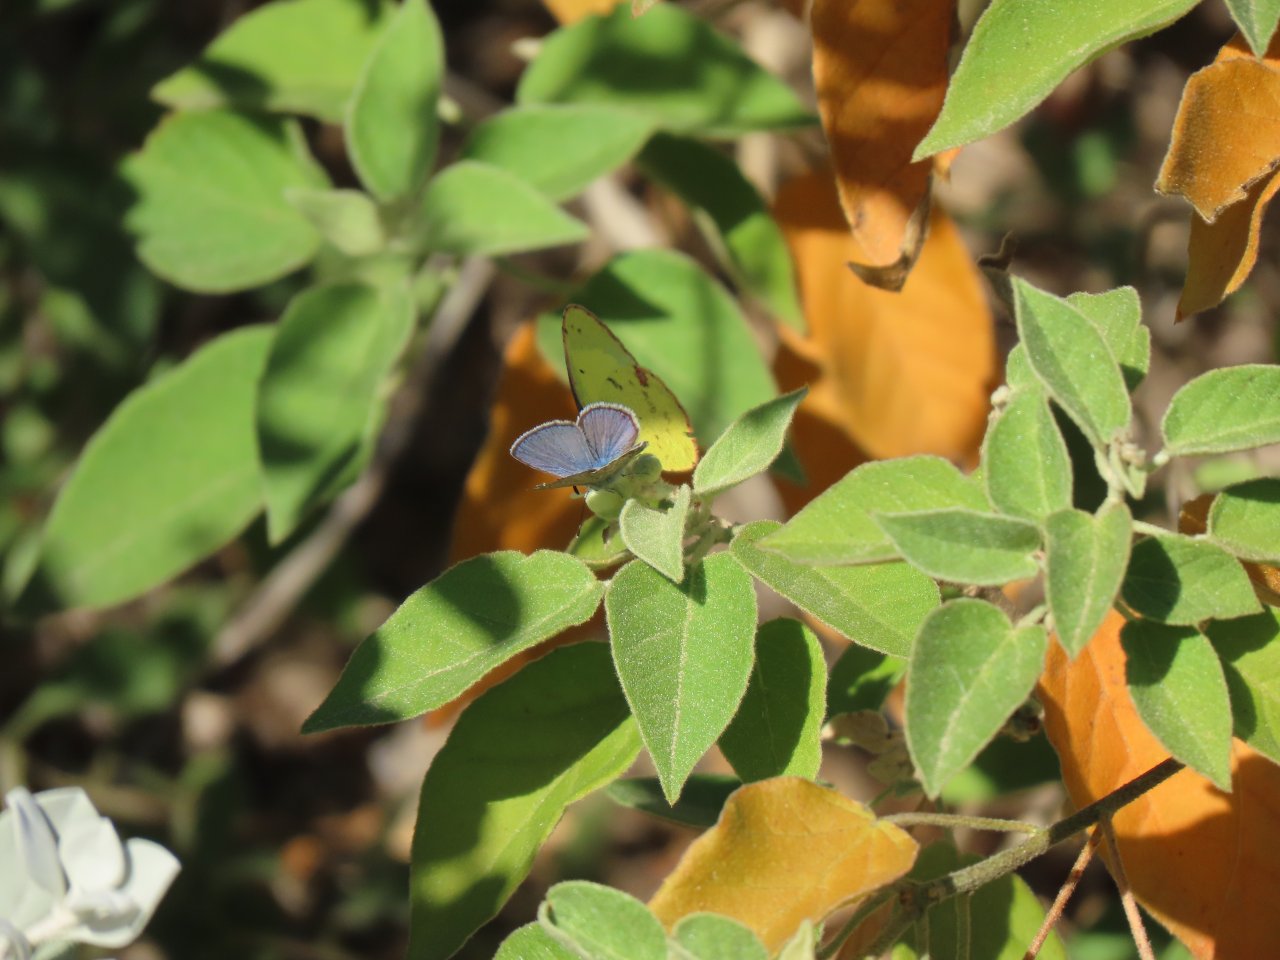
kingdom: Animalia
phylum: Arthropoda
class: Insecta
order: Lepidoptera
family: Lycaenidae
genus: Hemiargus
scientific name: Hemiargus ceraunus
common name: Ceraunus Blue
